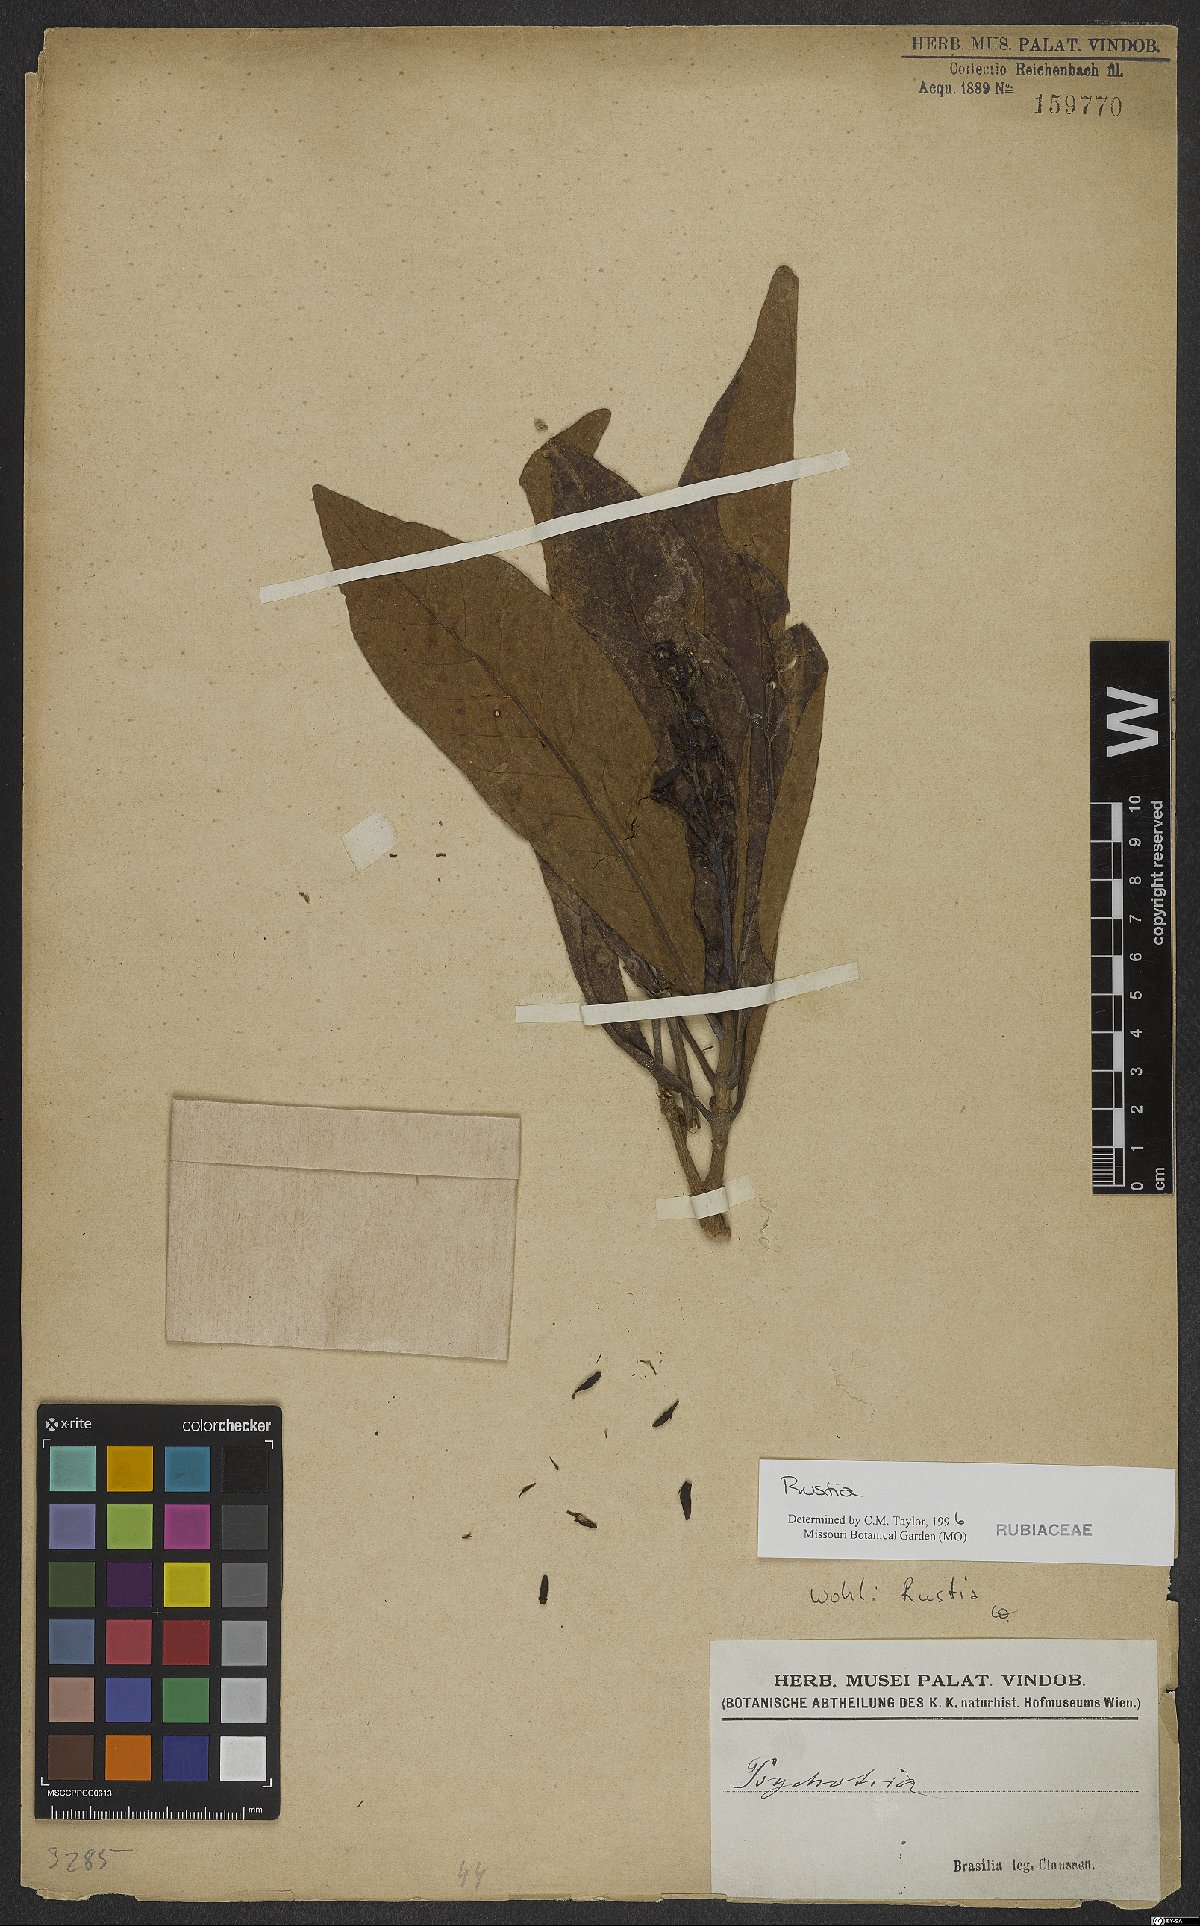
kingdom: Plantae
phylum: Tracheophyta
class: Magnoliopsida
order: Gentianales
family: Rubiaceae
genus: Rustia
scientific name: Rustia
